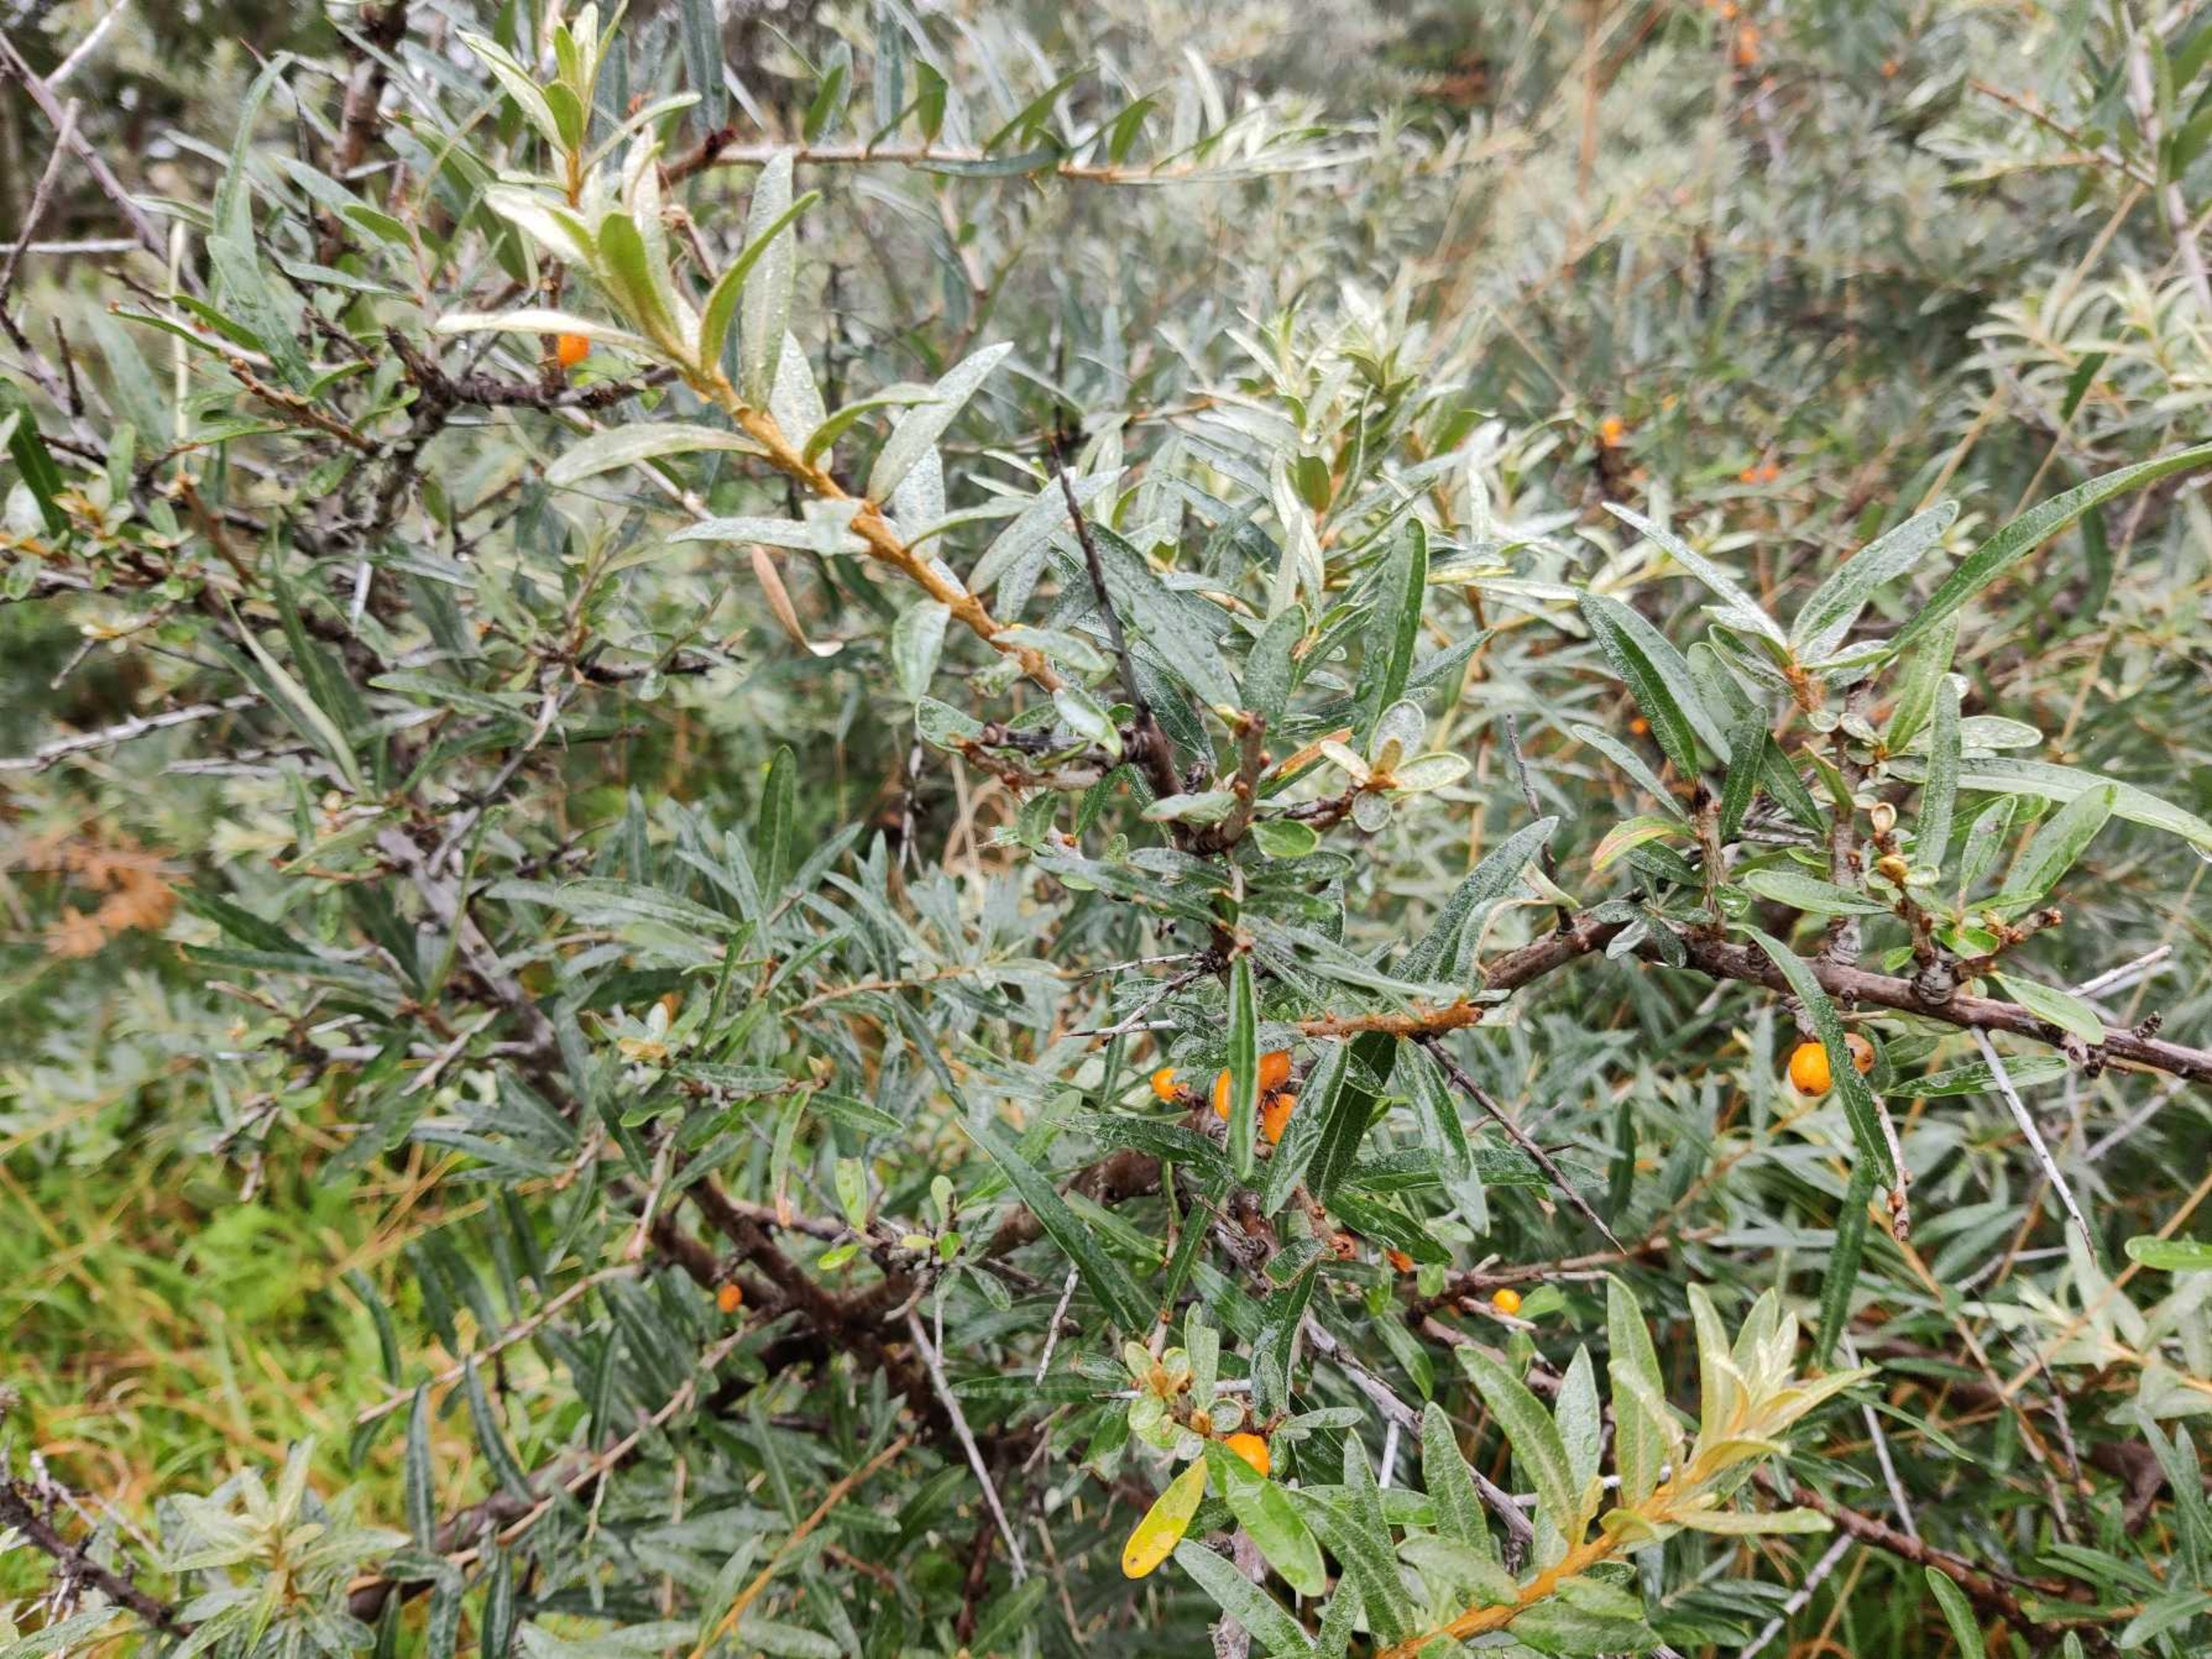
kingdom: Plantae
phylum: Tracheophyta
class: Magnoliopsida
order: Rosales
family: Elaeagnaceae
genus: Hippophae
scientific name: Hippophae rhamnoides
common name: Havtorn
